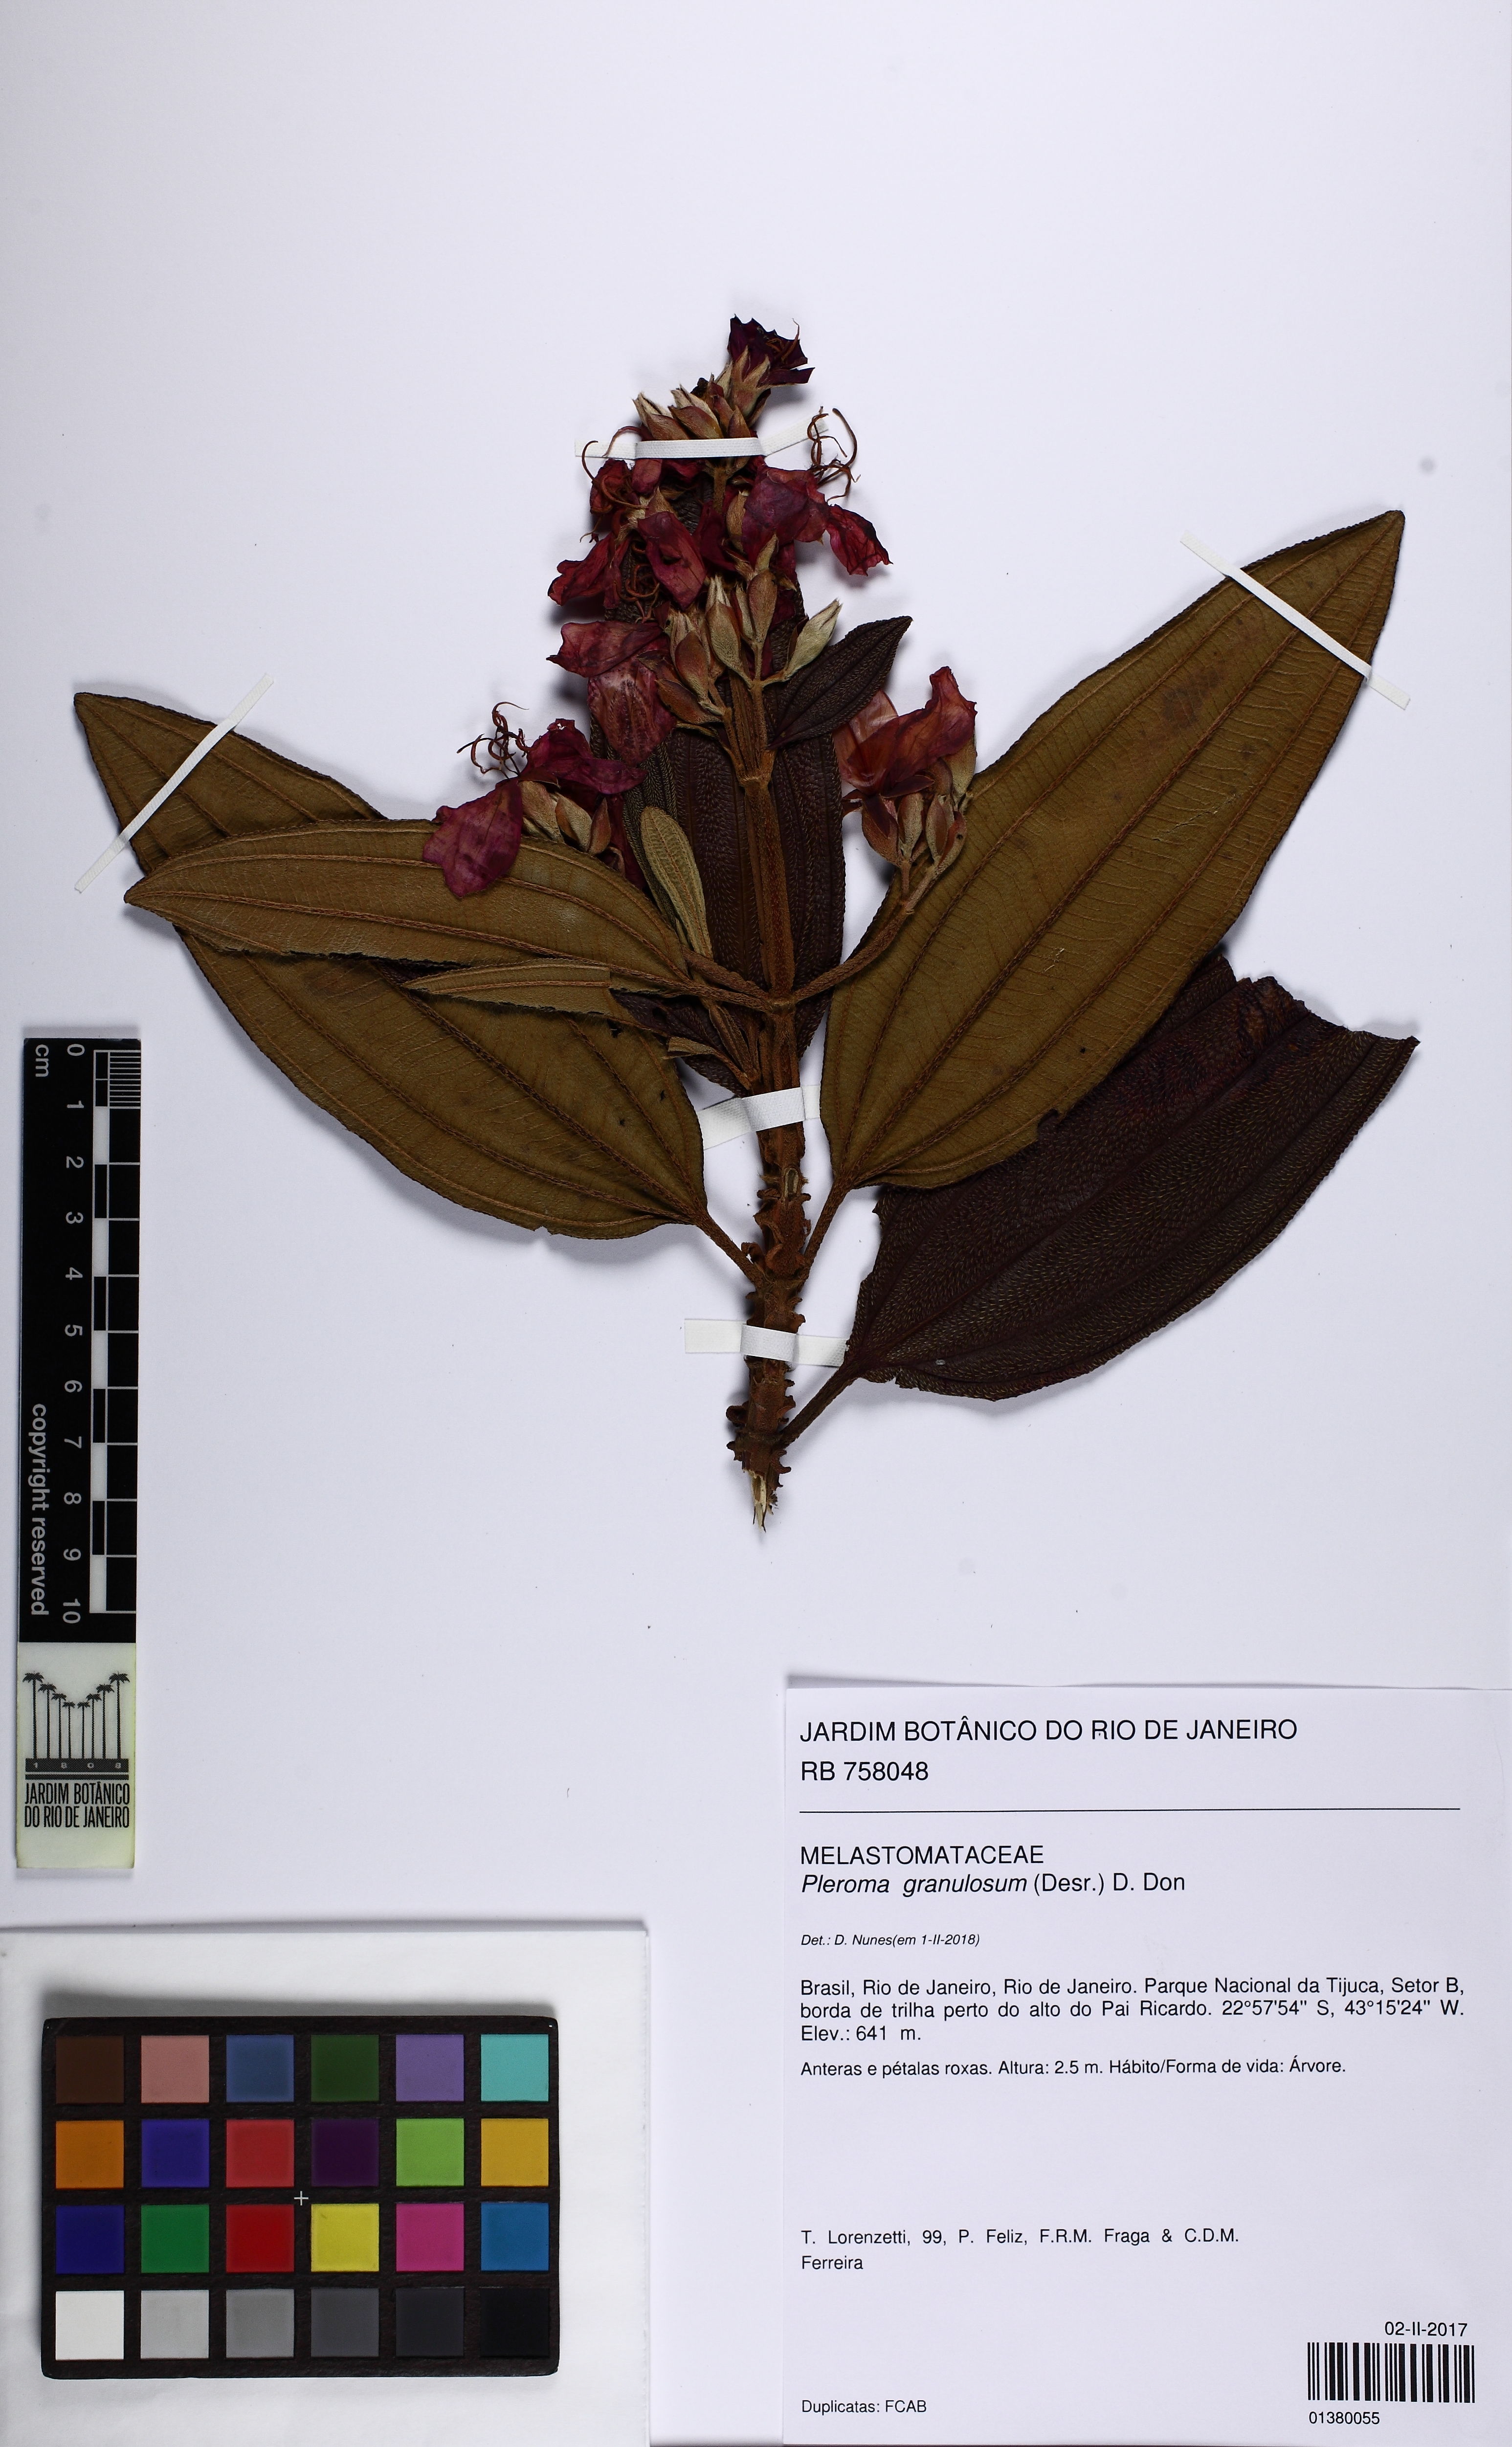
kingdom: Plantae
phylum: Tracheophyta
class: Magnoliopsida
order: Myrtales
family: Melastomataceae
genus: Pleroma
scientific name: Pleroma granulosum
